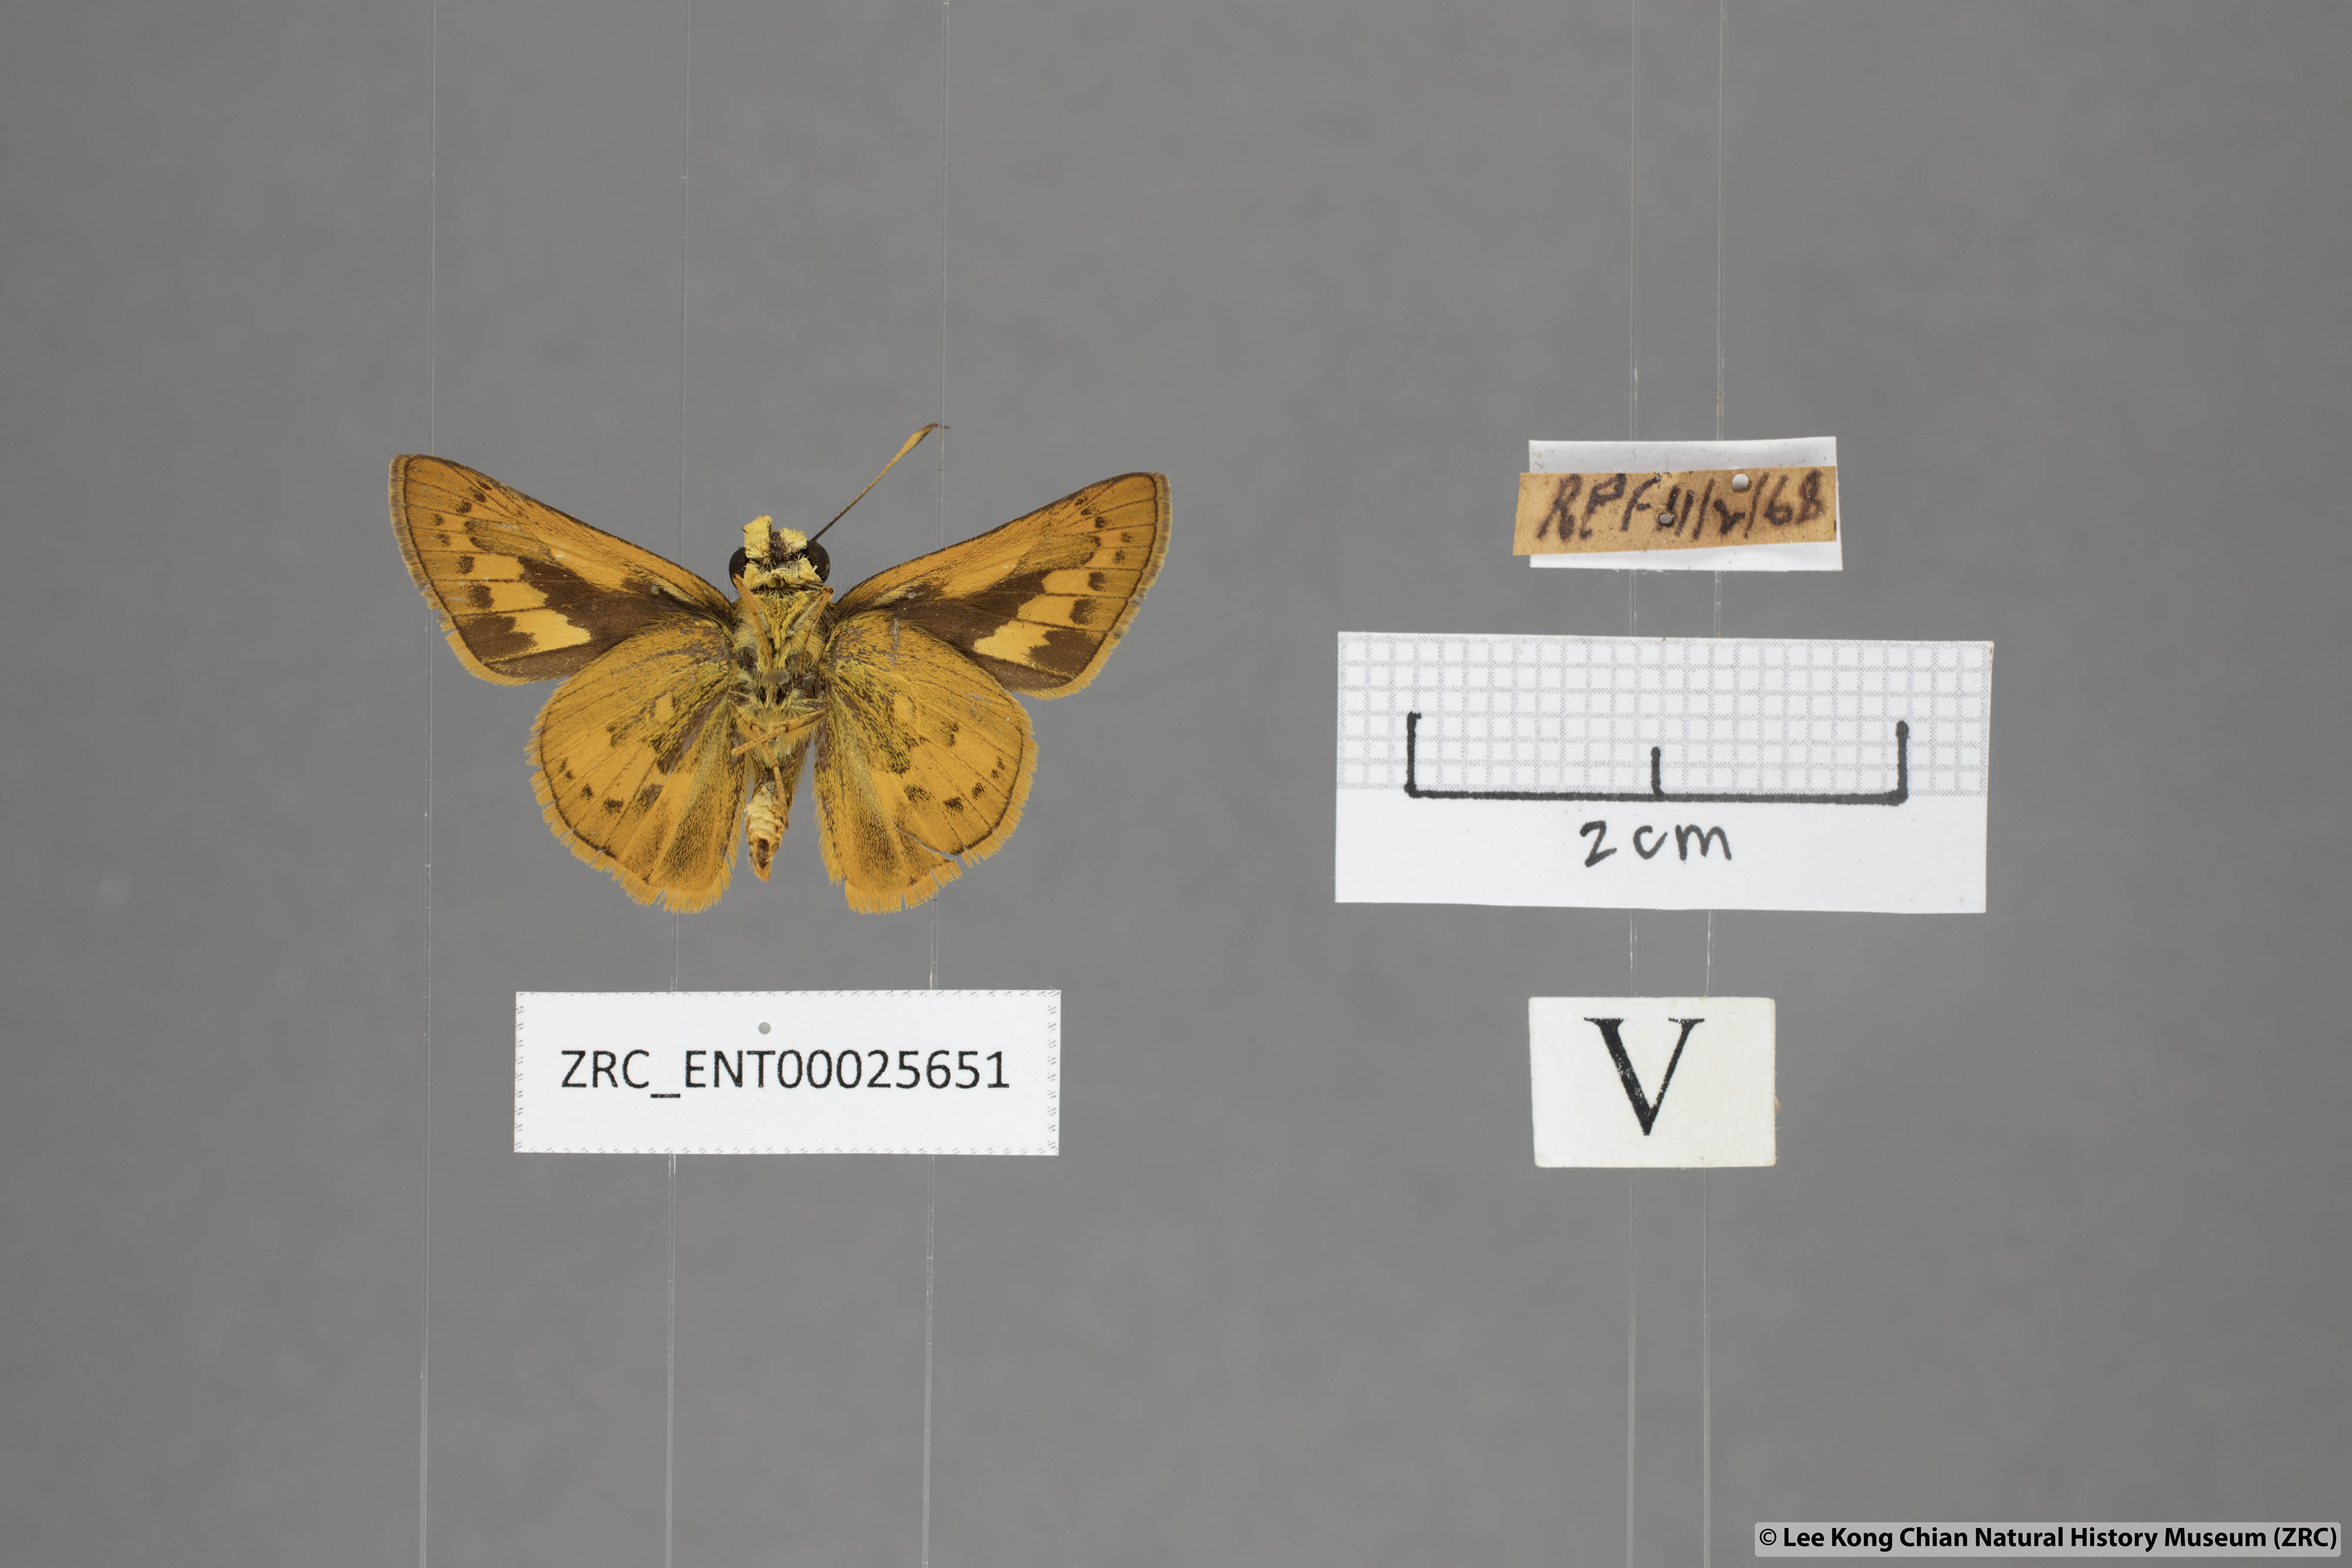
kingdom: Animalia
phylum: Arthropoda
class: Insecta
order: Lepidoptera
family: Hesperiidae
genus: Telicota
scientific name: Telicota colon
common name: Pale palm dart
